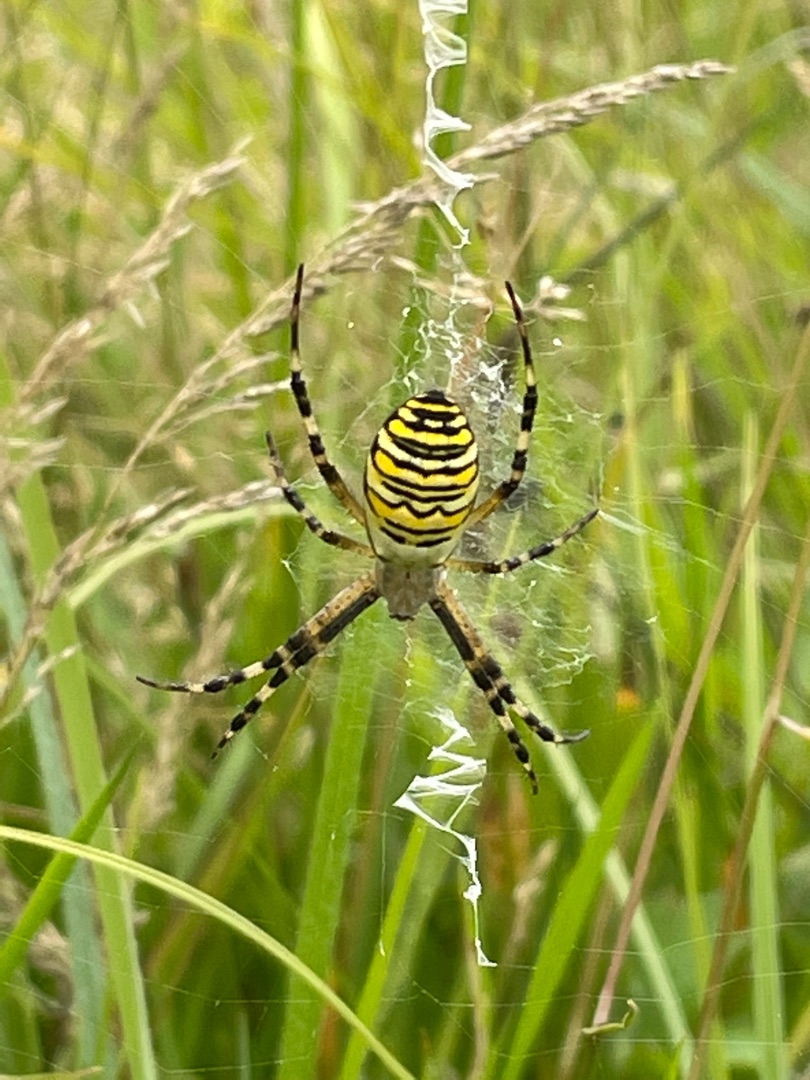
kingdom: Animalia
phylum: Arthropoda
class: Arachnida
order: Araneae
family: Araneidae
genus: Argiope
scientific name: Argiope bruennichi
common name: Hvepseedderkop
